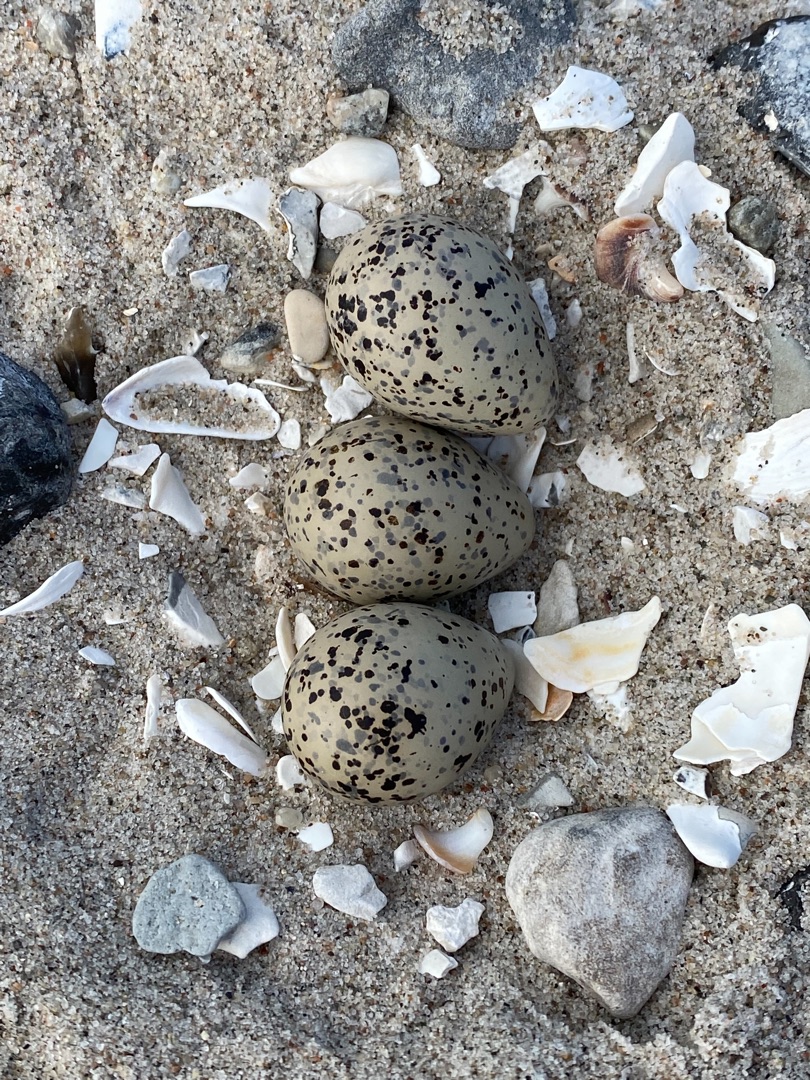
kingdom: Animalia
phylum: Chordata
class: Aves
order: Charadriiformes
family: Charadriidae
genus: Charadrius
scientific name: Charadrius hiaticula
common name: Stor præstekrave
